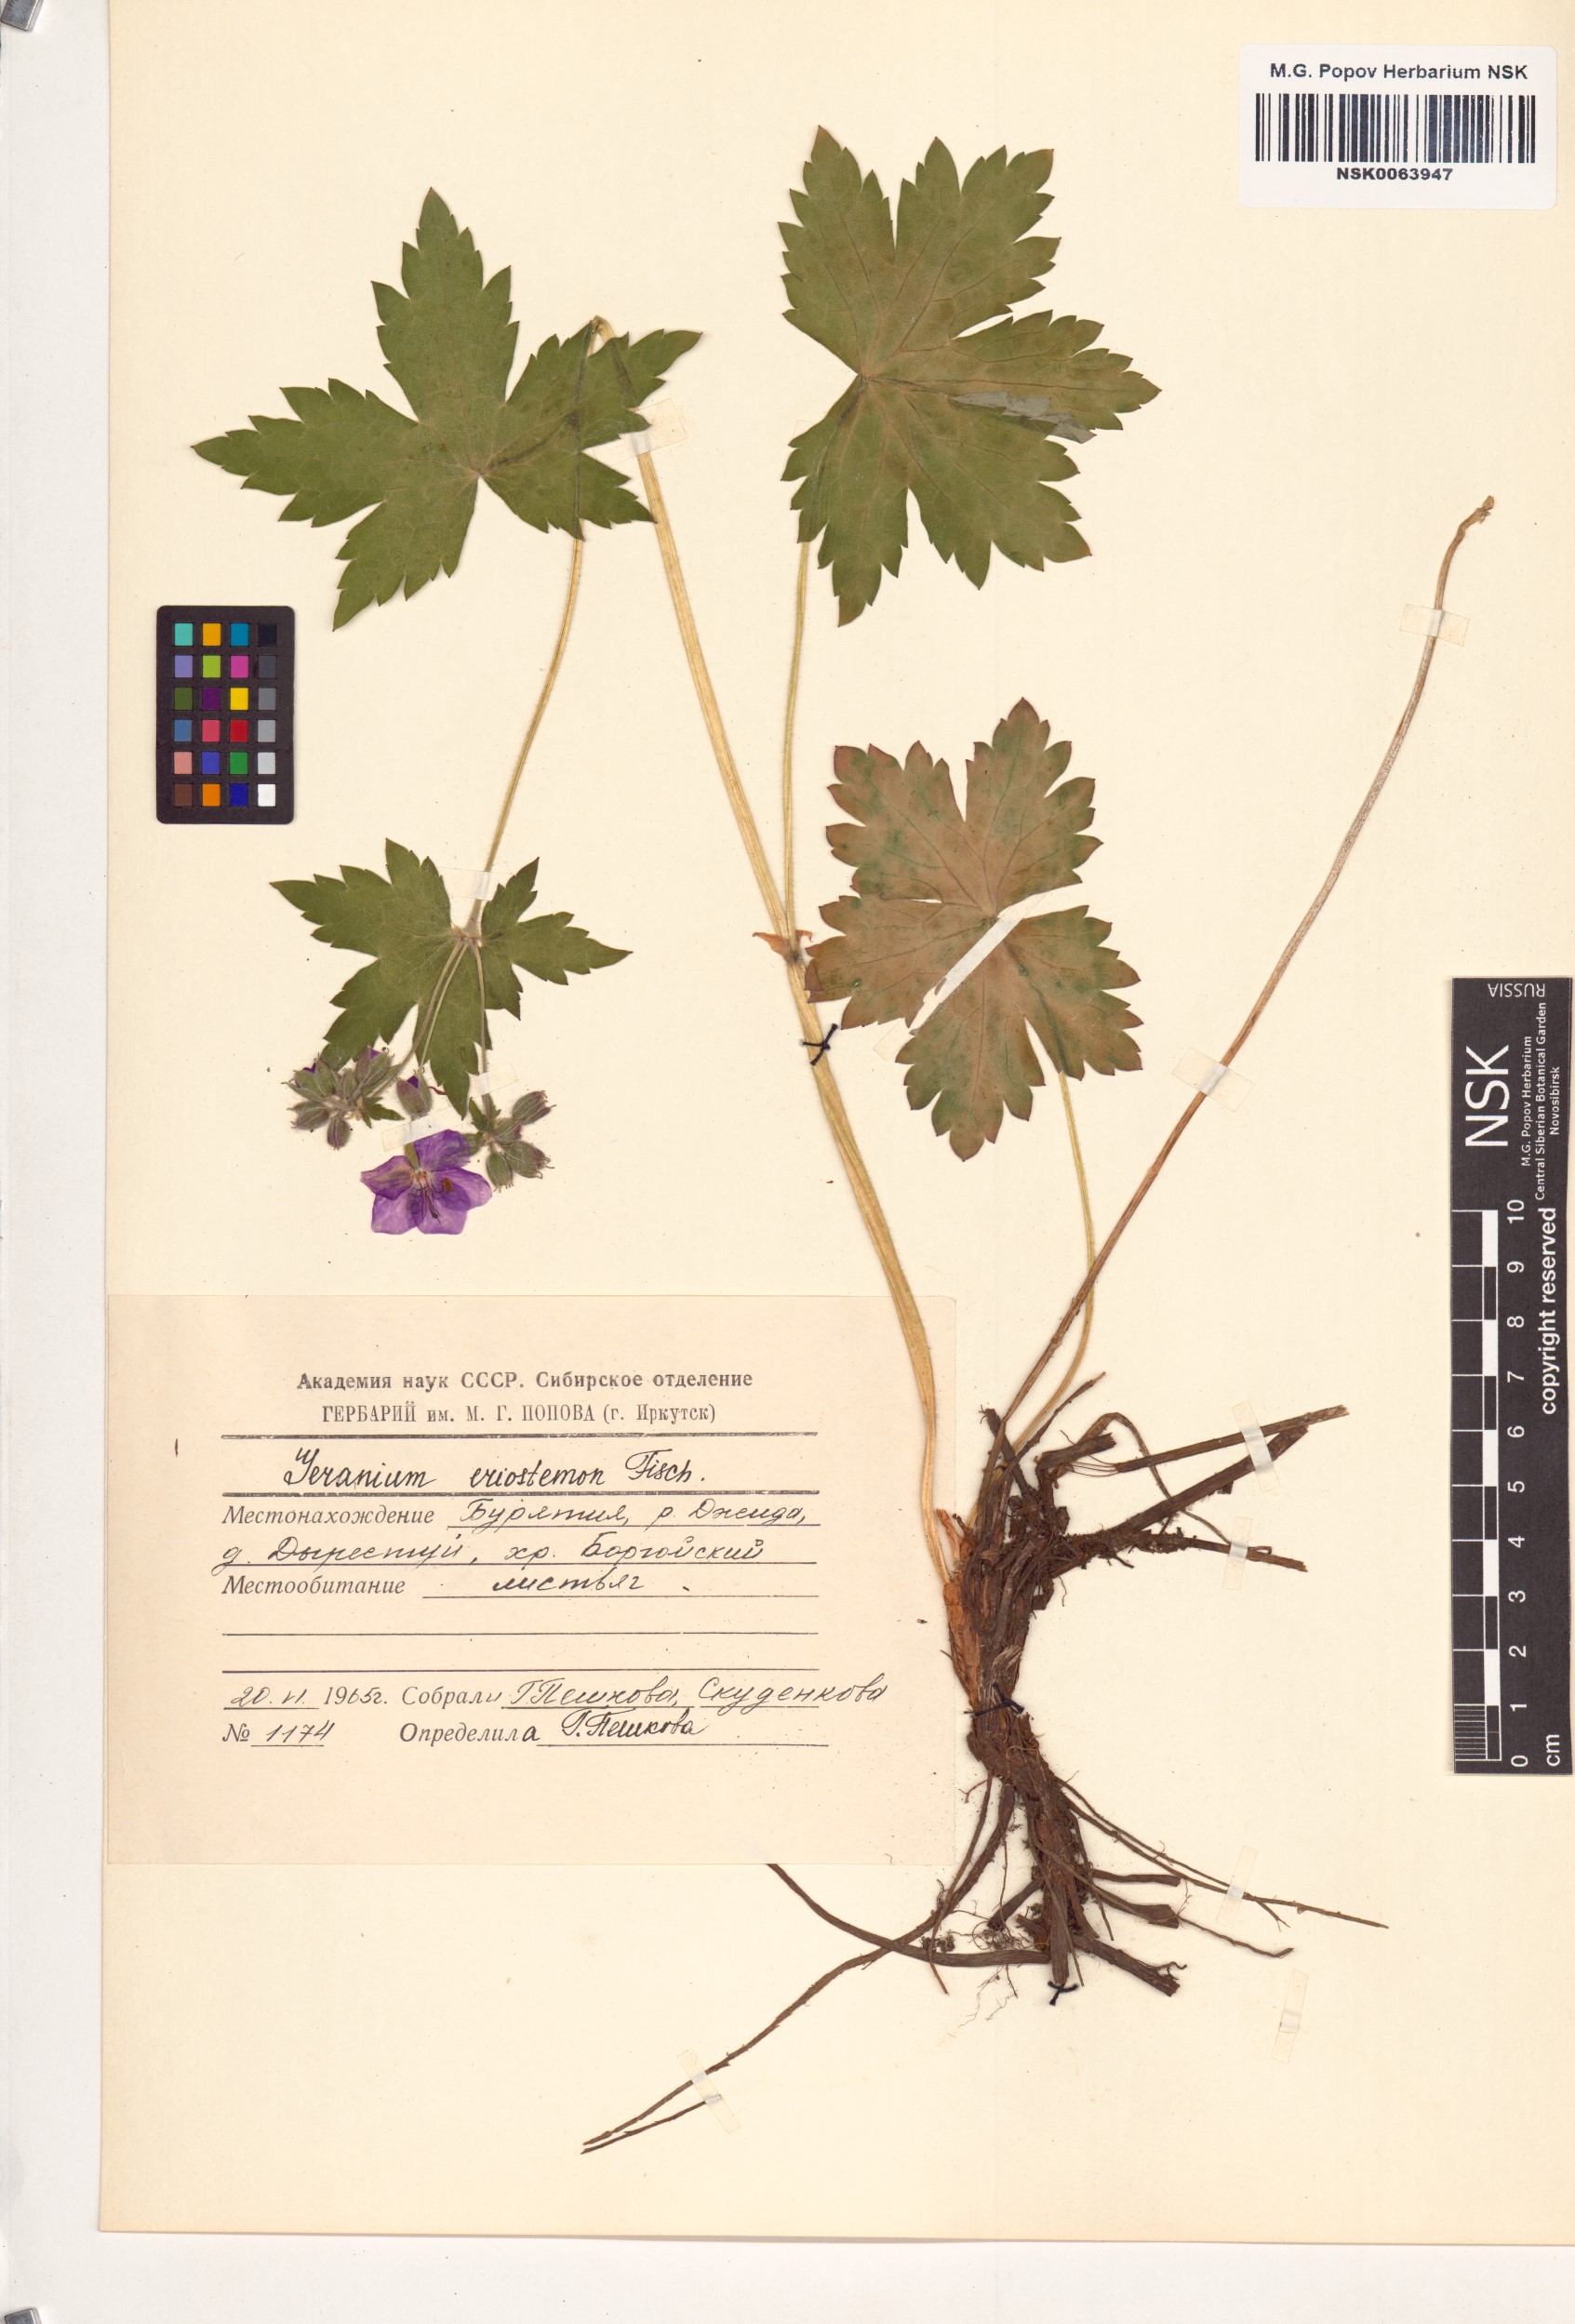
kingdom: Plantae
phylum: Tracheophyta
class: Magnoliopsida
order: Geraniales
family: Geraniaceae
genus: Geranium
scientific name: Geranium platyanthum
